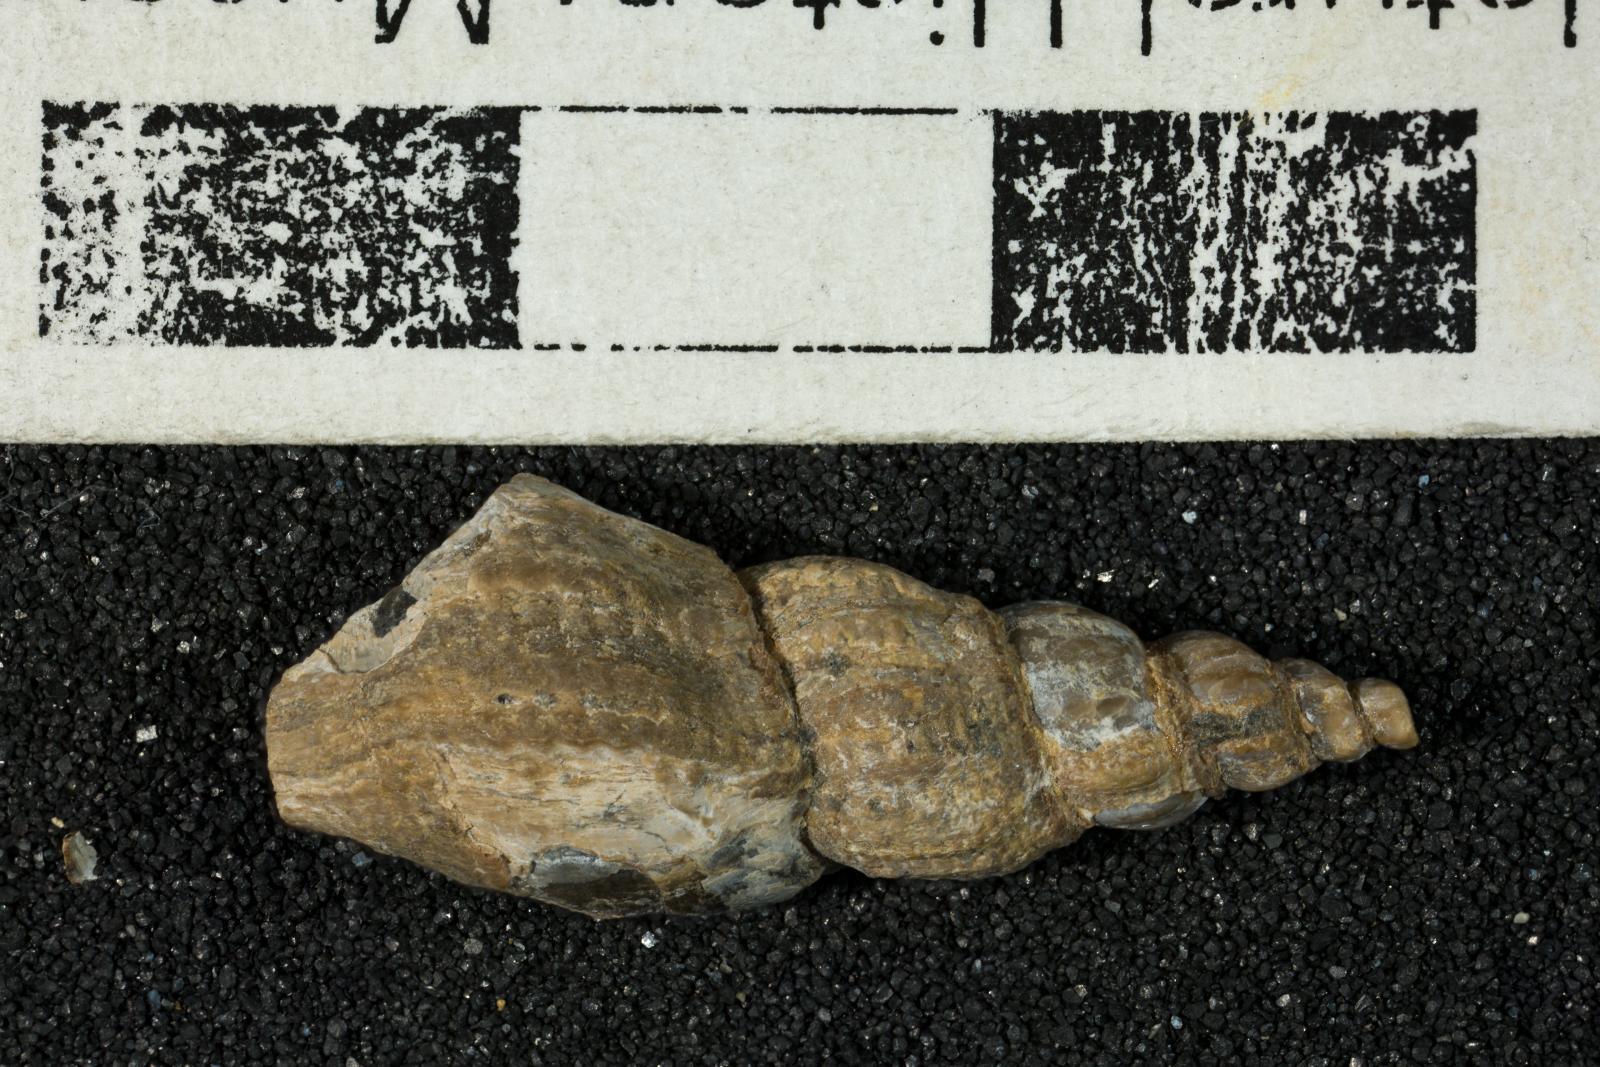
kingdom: Animalia
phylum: Mollusca
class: Gastropoda
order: Neogastropoda
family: Fasciolariidae
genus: Fusinus
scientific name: Fusinus
